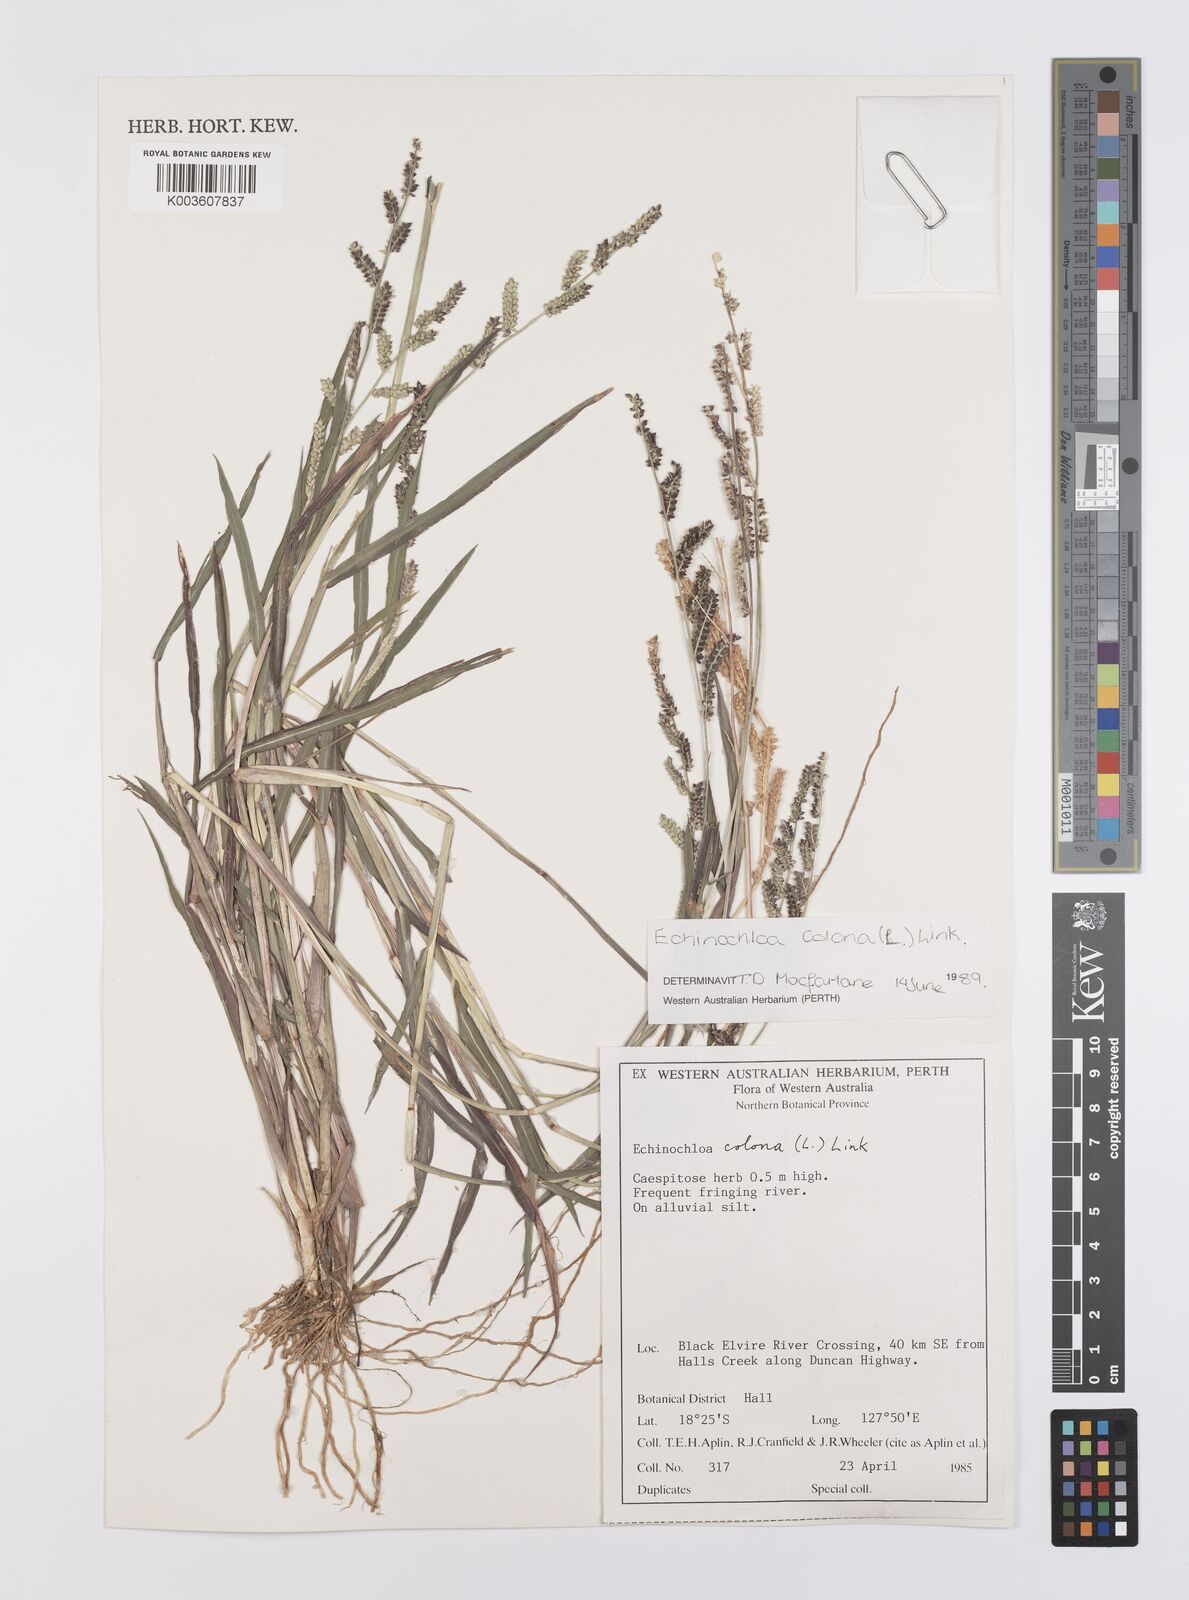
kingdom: Plantae
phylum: Tracheophyta
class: Liliopsida
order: Poales
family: Poaceae
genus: Echinochloa
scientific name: Echinochloa colonum
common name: Jungle rice
